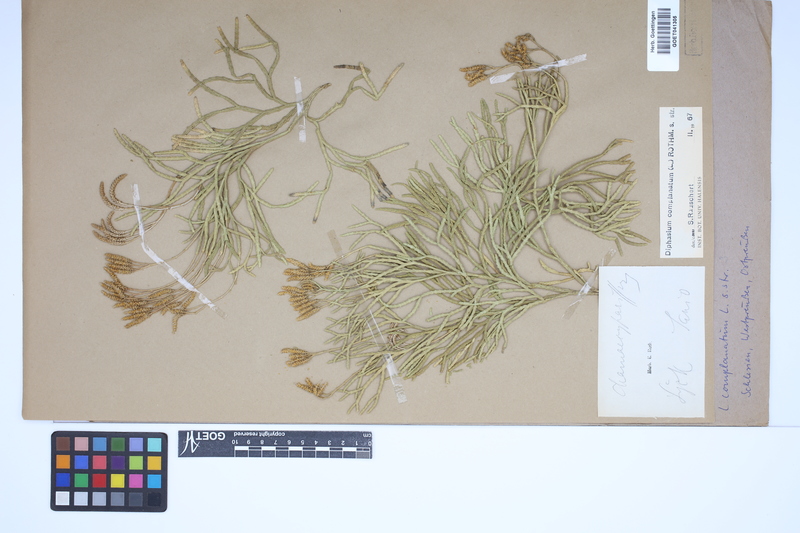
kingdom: Plantae
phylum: Tracheophyta
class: Lycopodiopsida
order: Lycopodiales
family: Lycopodiaceae
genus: Diphasiastrum
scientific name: Diphasiastrum complanatum
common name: Northern running-pine
